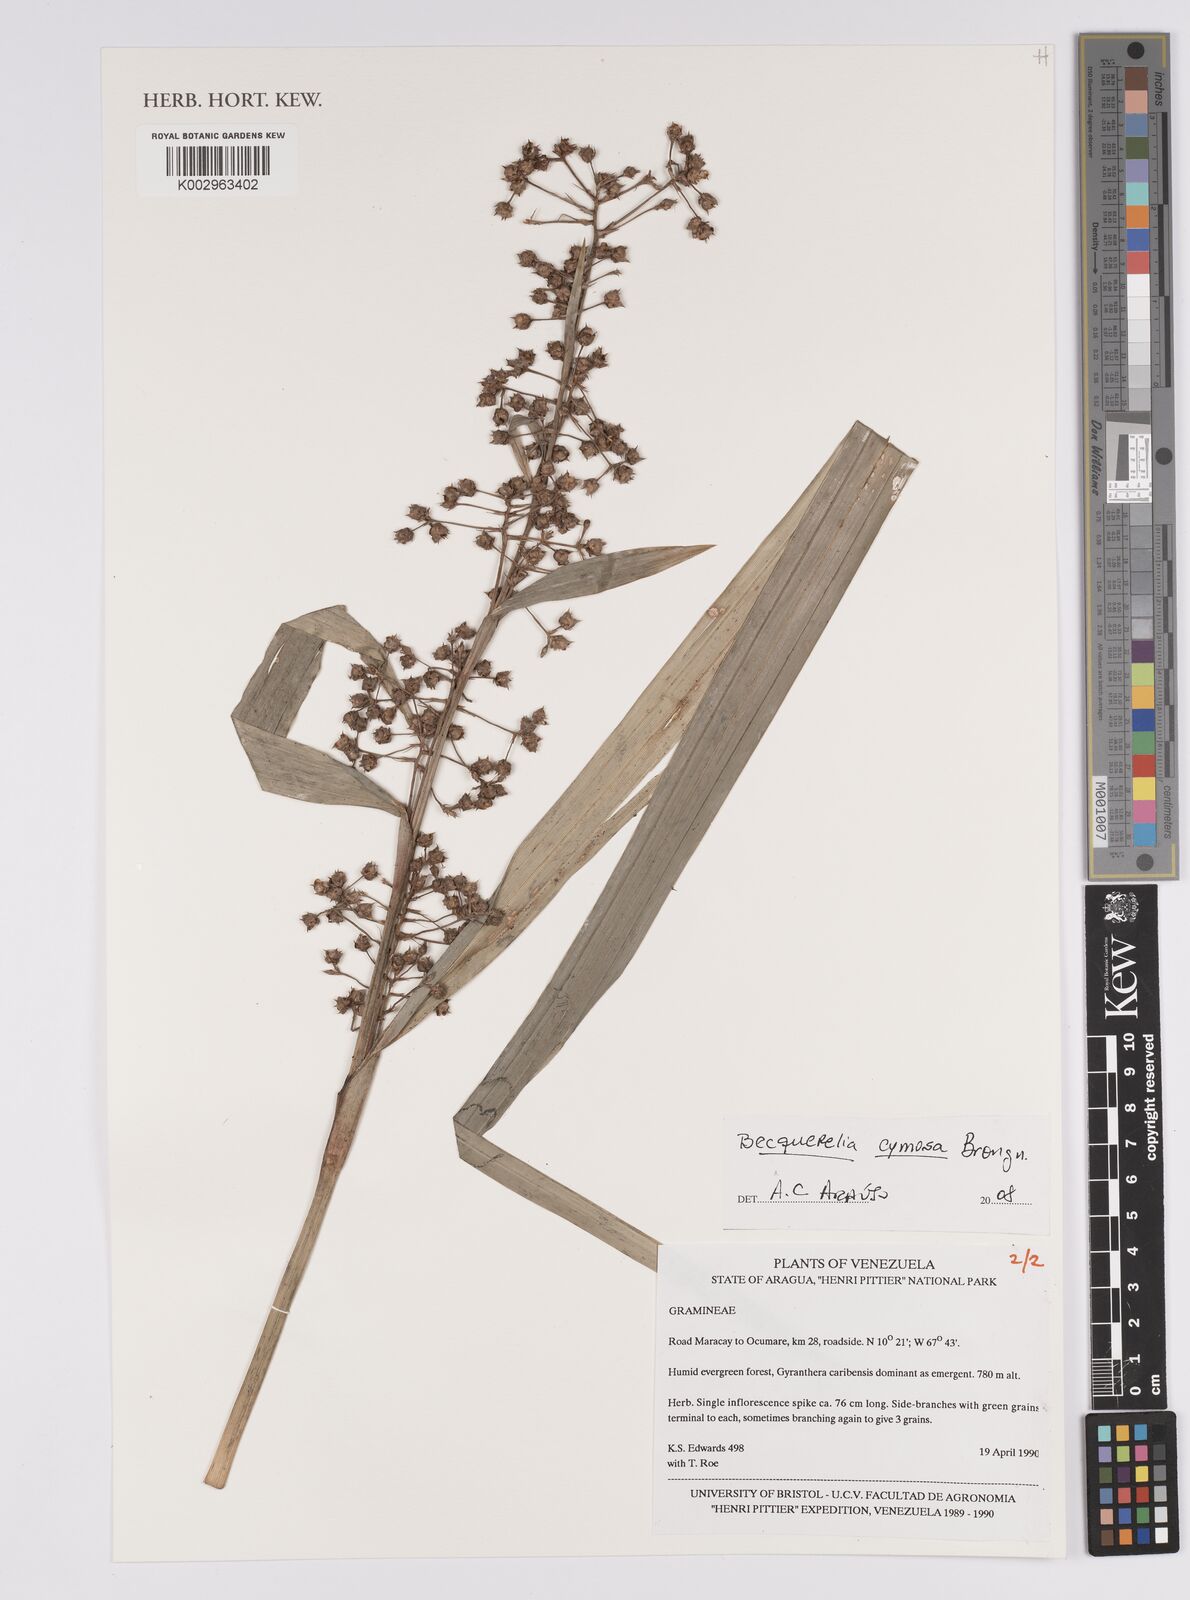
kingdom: Plantae
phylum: Tracheophyta
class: Liliopsida
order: Poales
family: Cyperaceae
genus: Becquerelia
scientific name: Becquerelia cymosa
